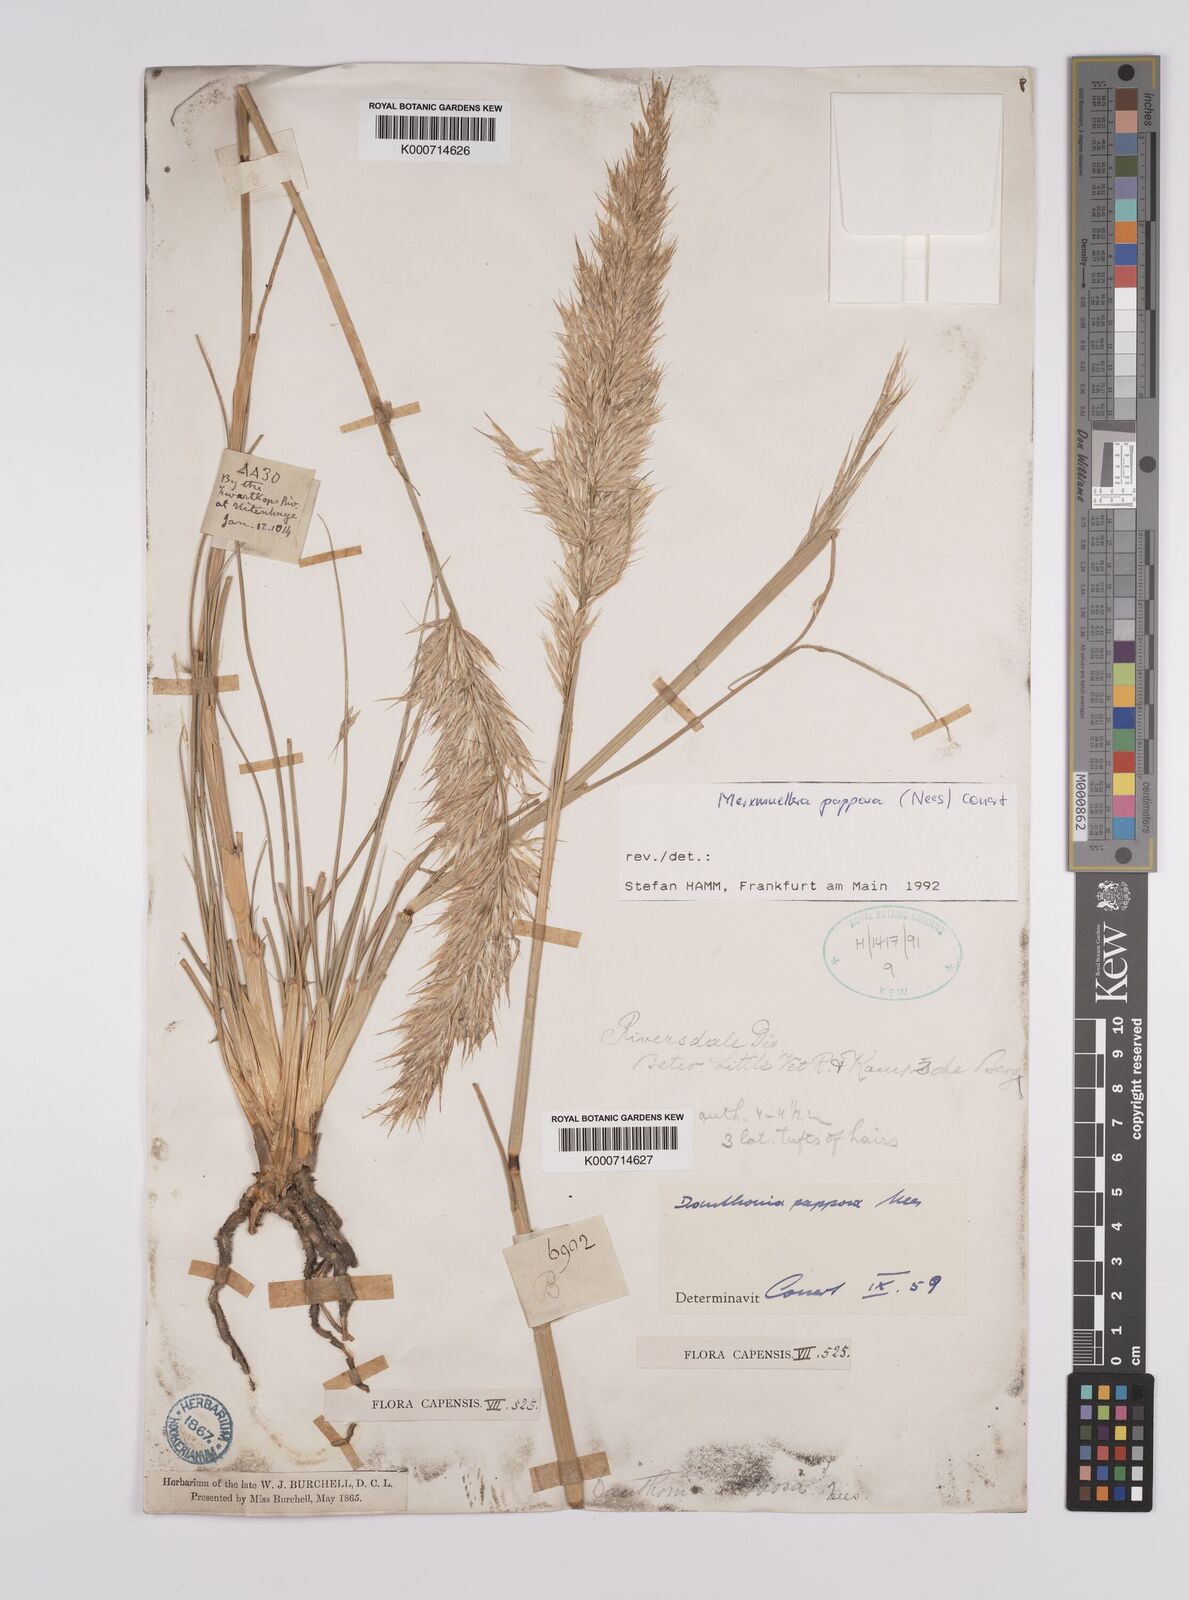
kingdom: Plantae
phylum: Tracheophyta
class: Liliopsida
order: Poales
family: Poaceae
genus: Rytidosperma
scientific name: Rytidosperma
